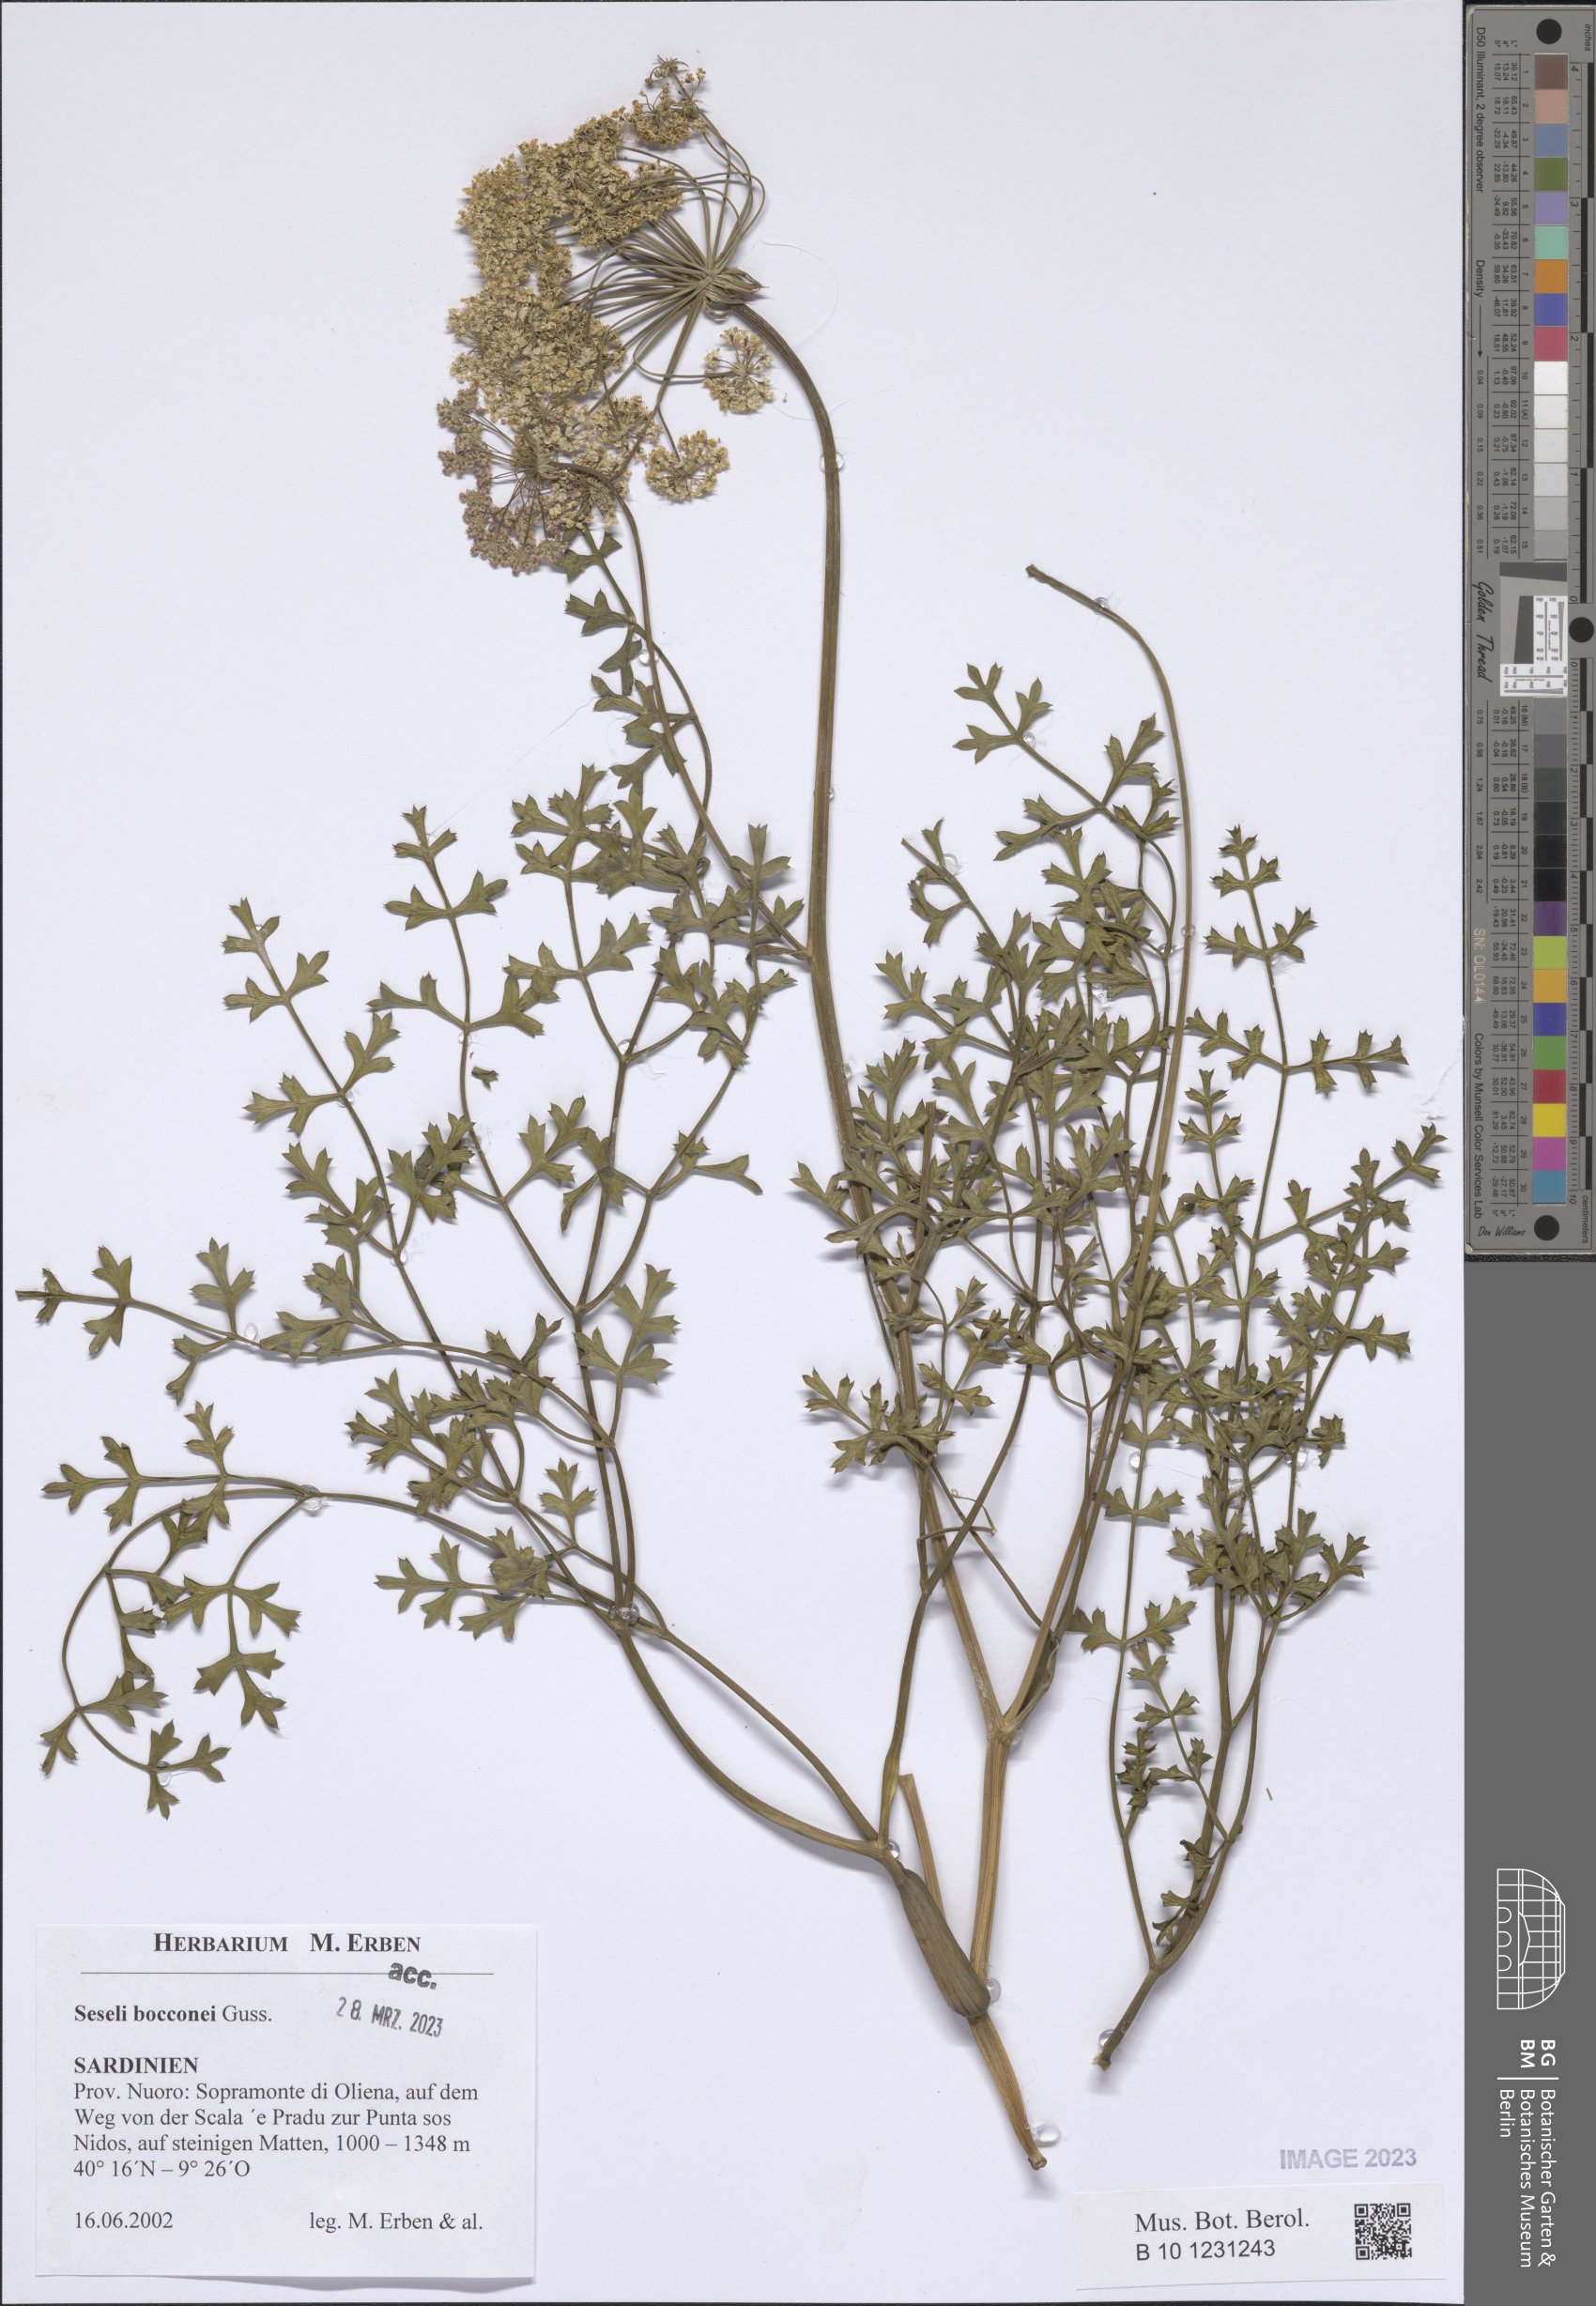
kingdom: Plantae
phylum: Tracheophyta
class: Magnoliopsida
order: Apiales
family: Apiaceae
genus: Seseli
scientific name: Seseli bocconei
